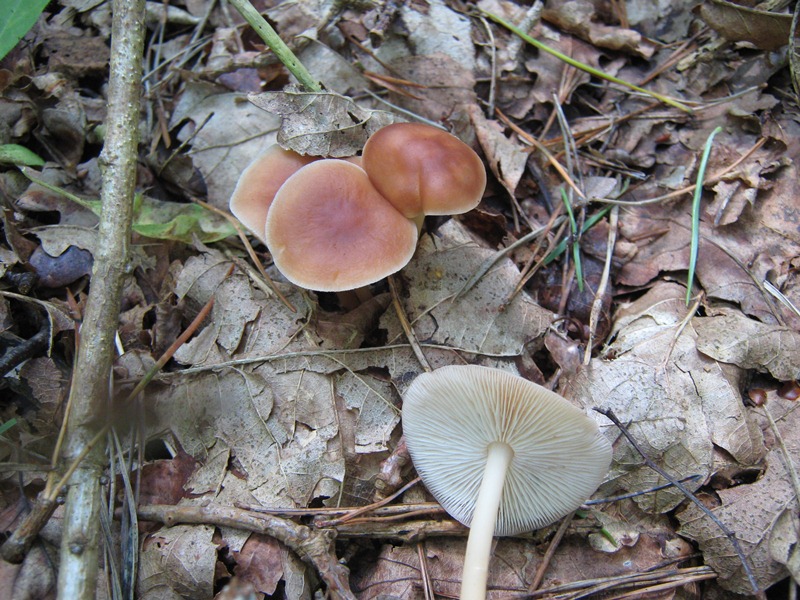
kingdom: Fungi
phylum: Basidiomycota
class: Agaricomycetes
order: Agaricales
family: Omphalotaceae
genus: Gymnopus
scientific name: Gymnopus ocior
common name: mørk fladhat
